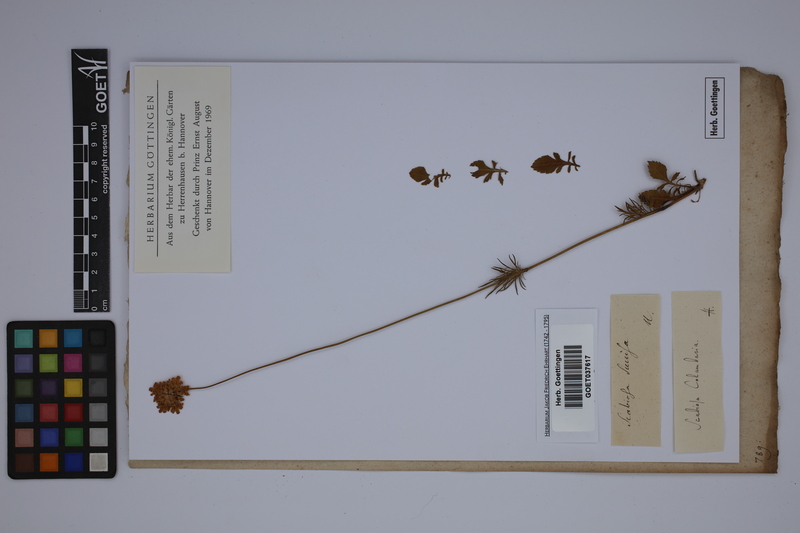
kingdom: Plantae
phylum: Tracheophyta
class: Magnoliopsida
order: Dipsacales
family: Caprifoliaceae
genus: Scabiosa
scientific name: Scabiosa columbaria
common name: Small scabious
